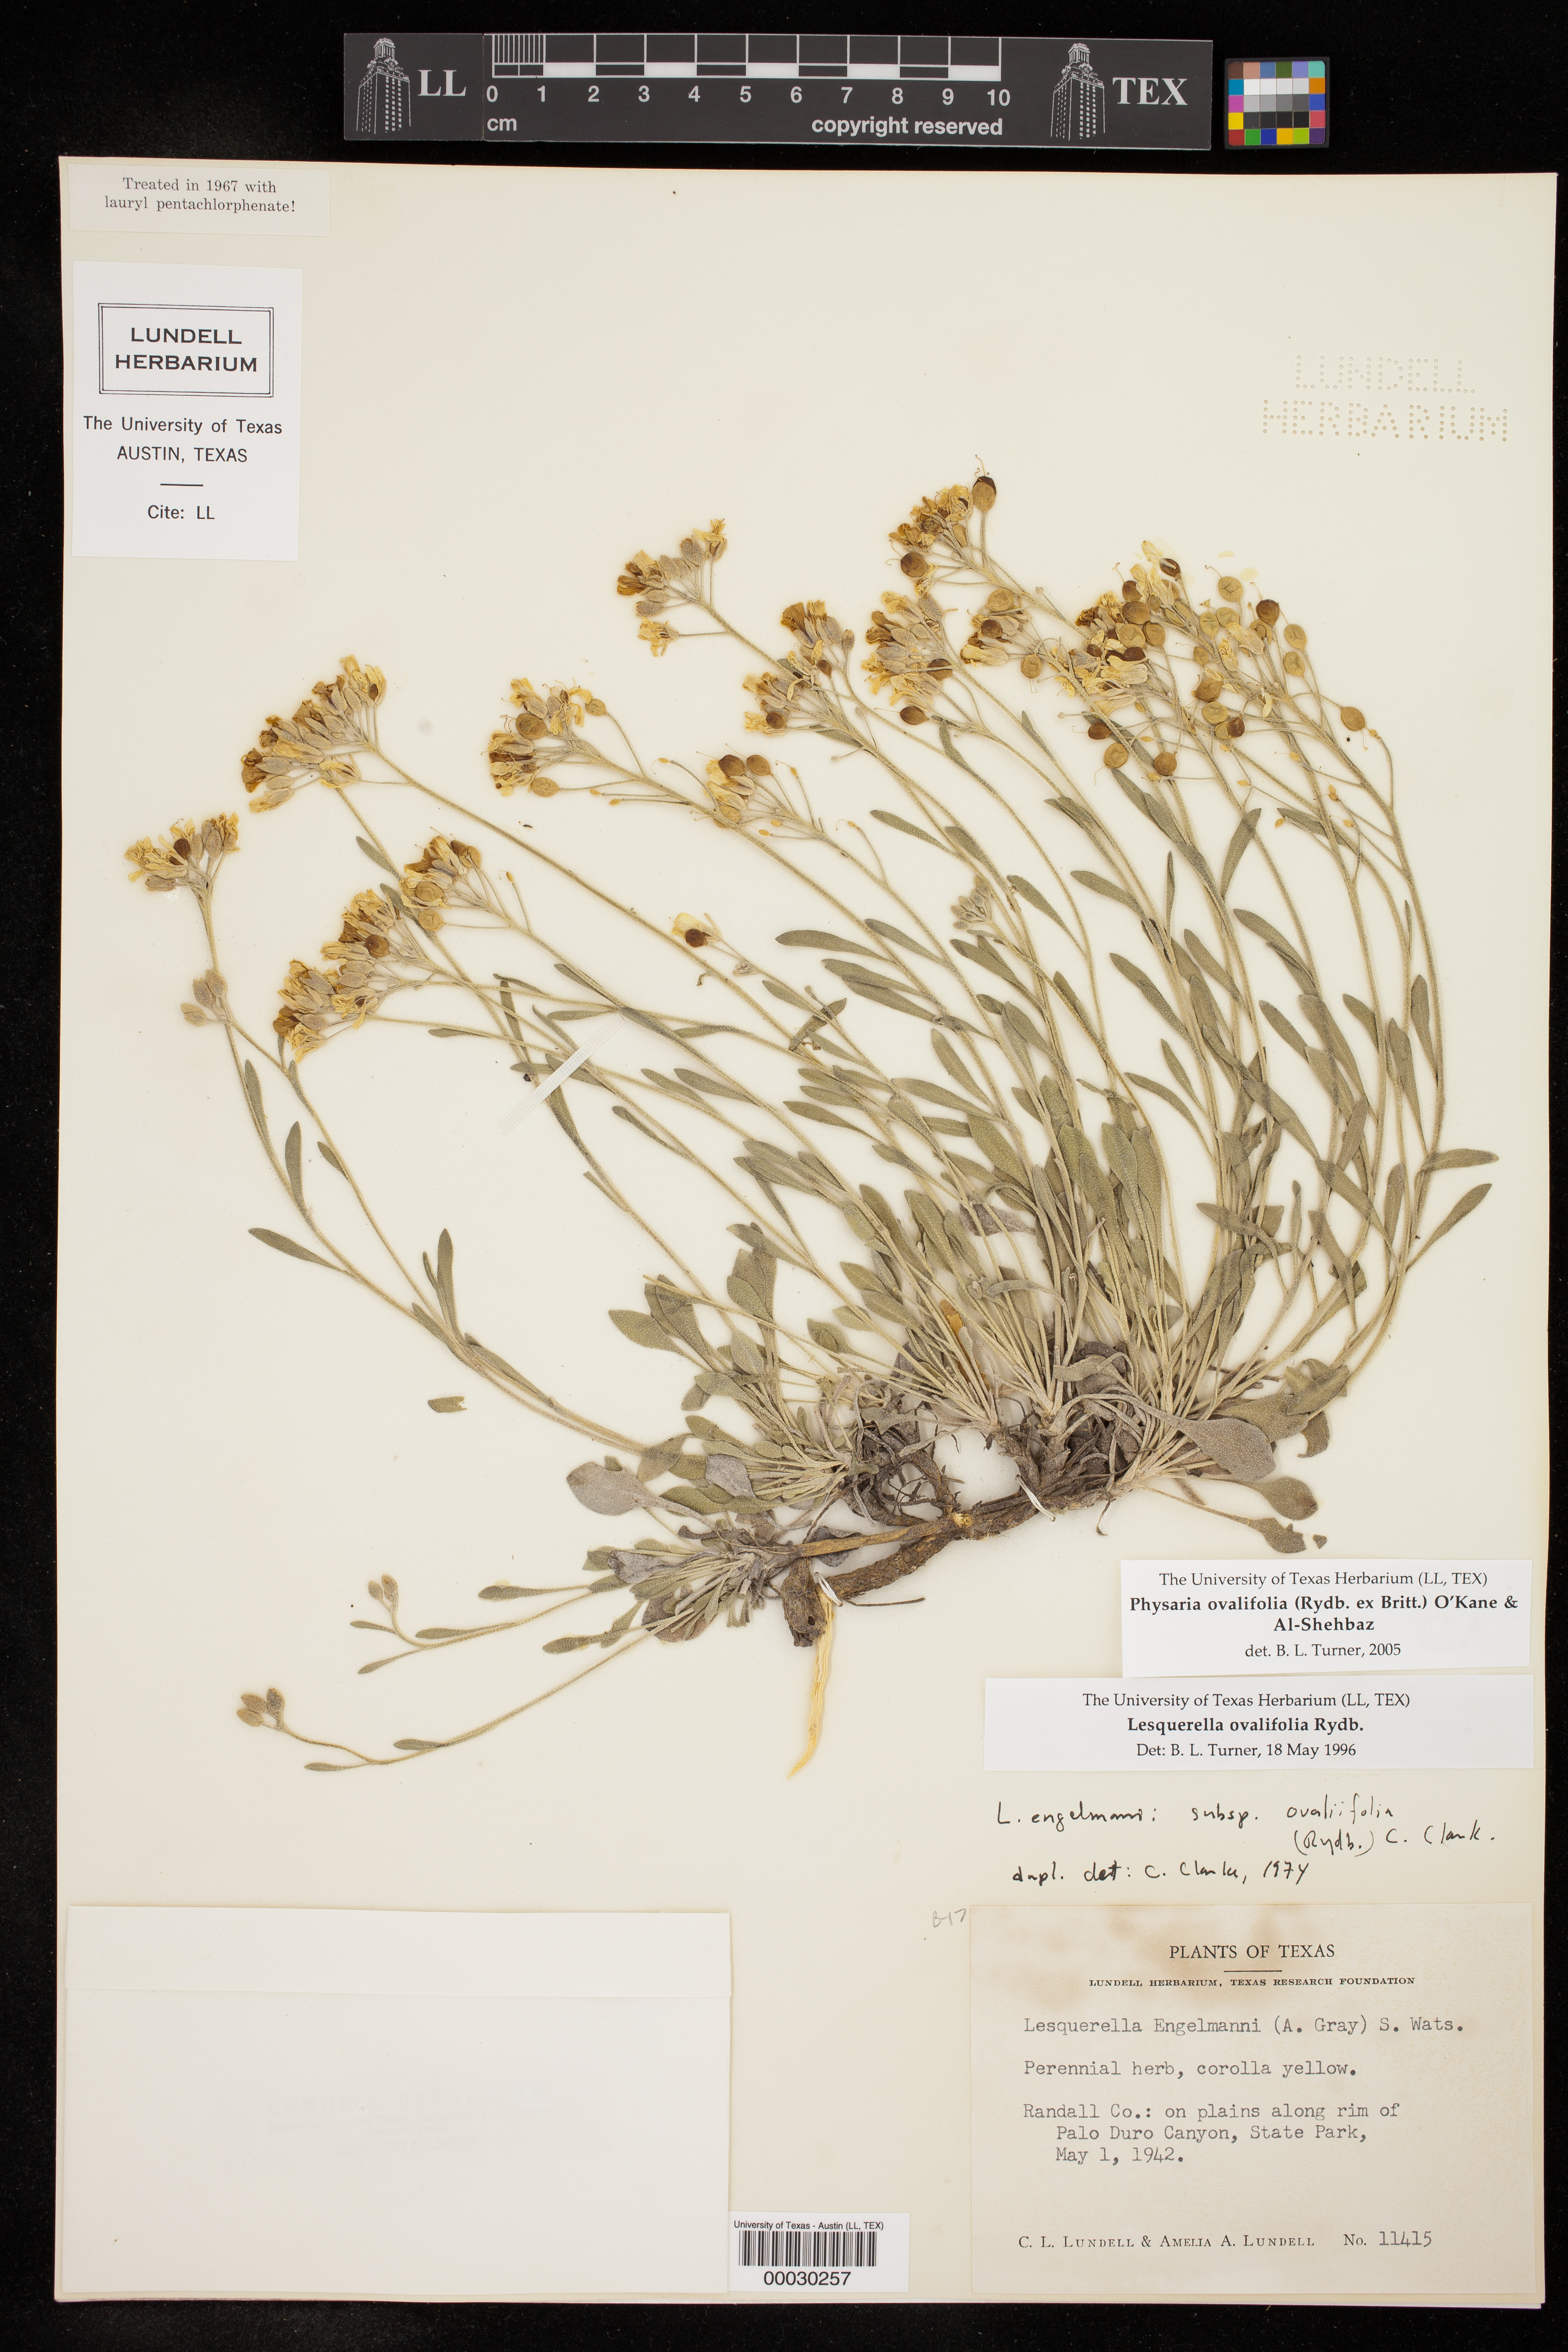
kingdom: Plantae
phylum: Tracheophyta
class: Magnoliopsida
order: Brassicales
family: Brassicaceae
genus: Physaria
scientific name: Physaria ovalifolia
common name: Round-leaf bladderpod
